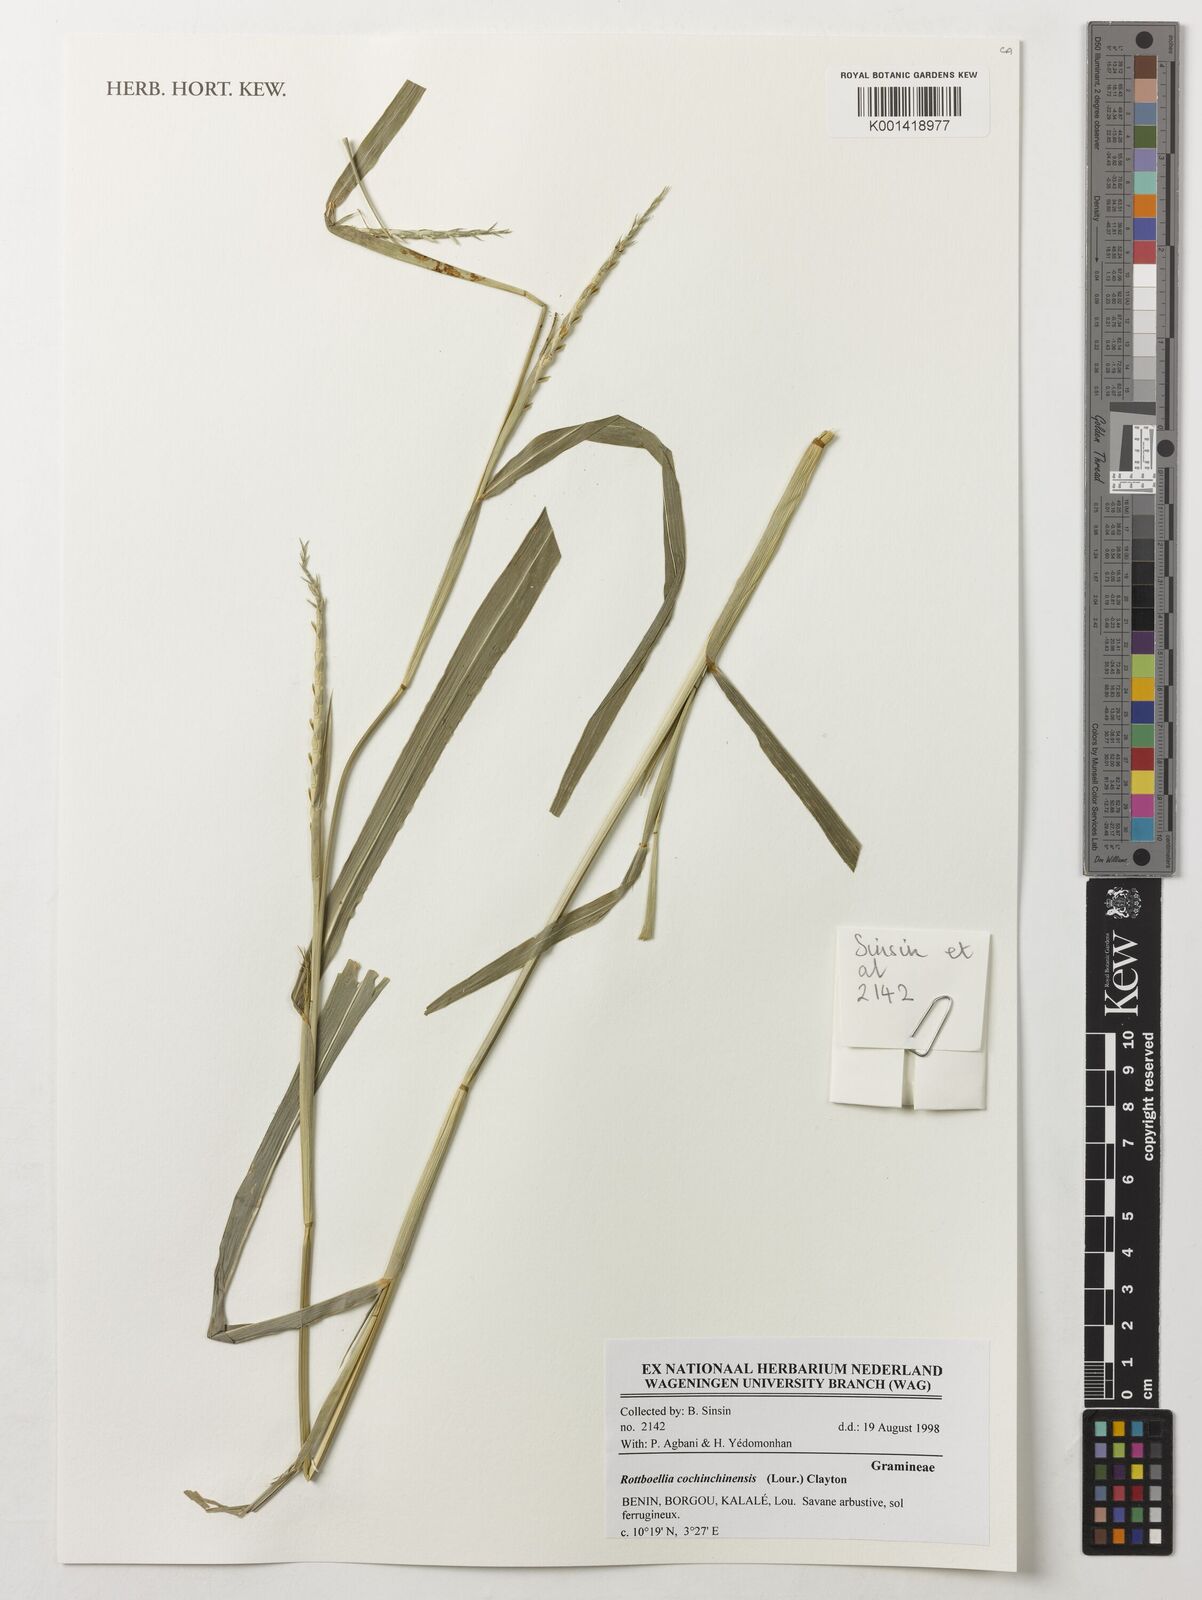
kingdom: Plantae
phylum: Tracheophyta
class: Liliopsida
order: Poales
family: Poaceae
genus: Rottboellia
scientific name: Rottboellia cochinchinensis
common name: Itchgrass
